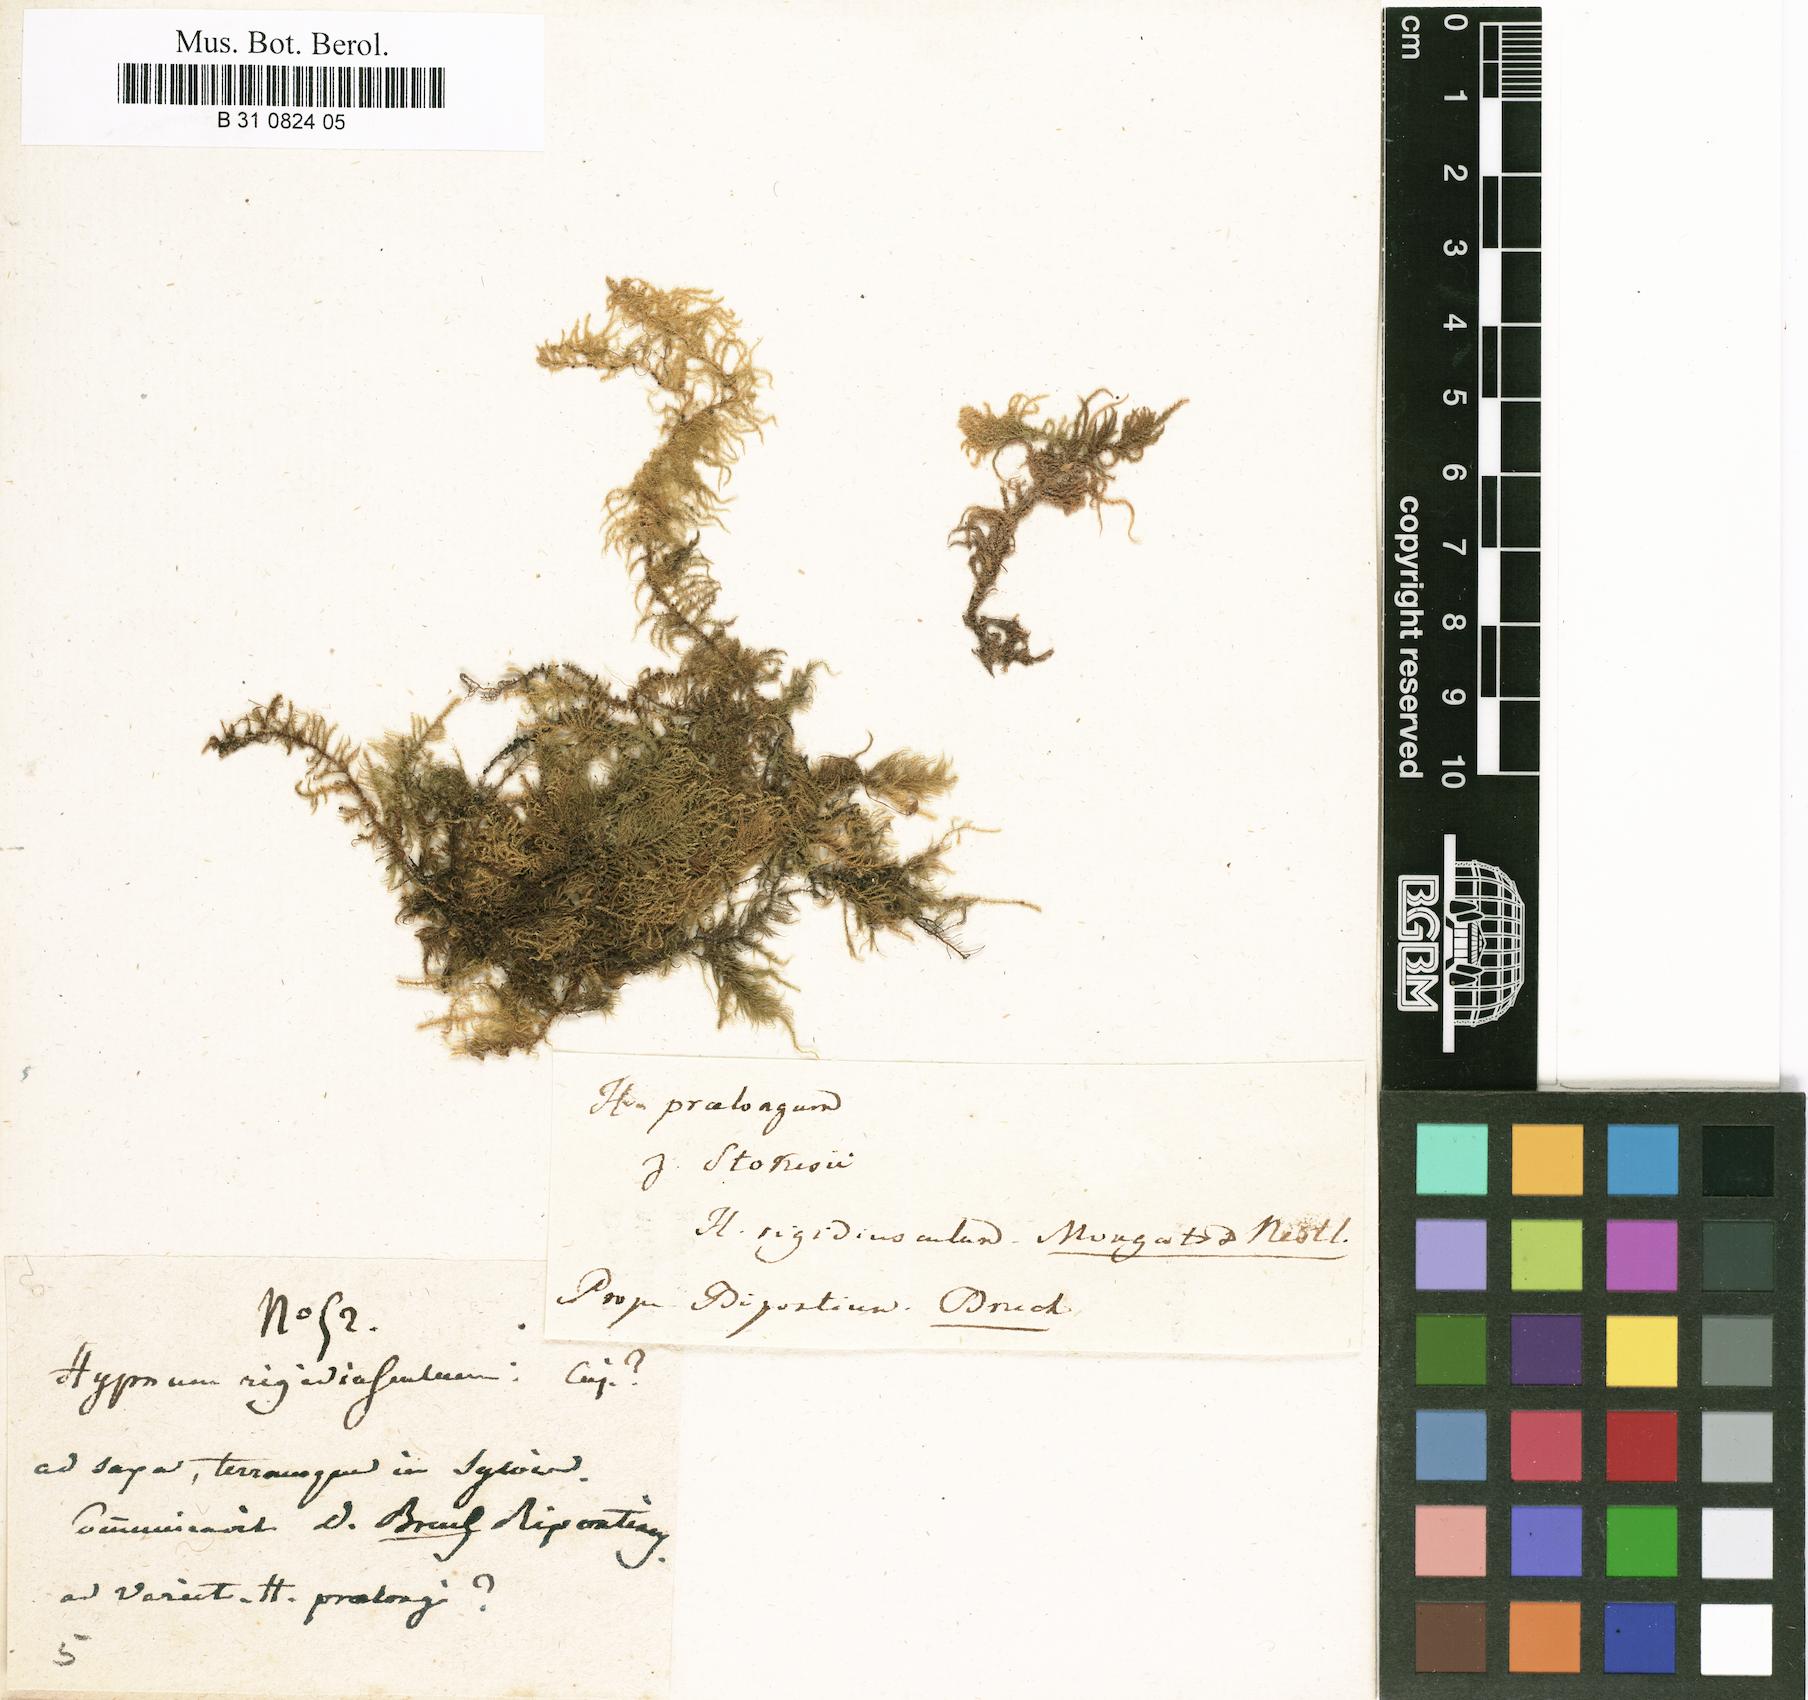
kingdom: Plantae
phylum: Bryophyta
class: Bryopsida
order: Hypnales
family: Brachytheciaceae
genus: Kindbergia
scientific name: Kindbergia praelonga
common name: Slender beaked moss
